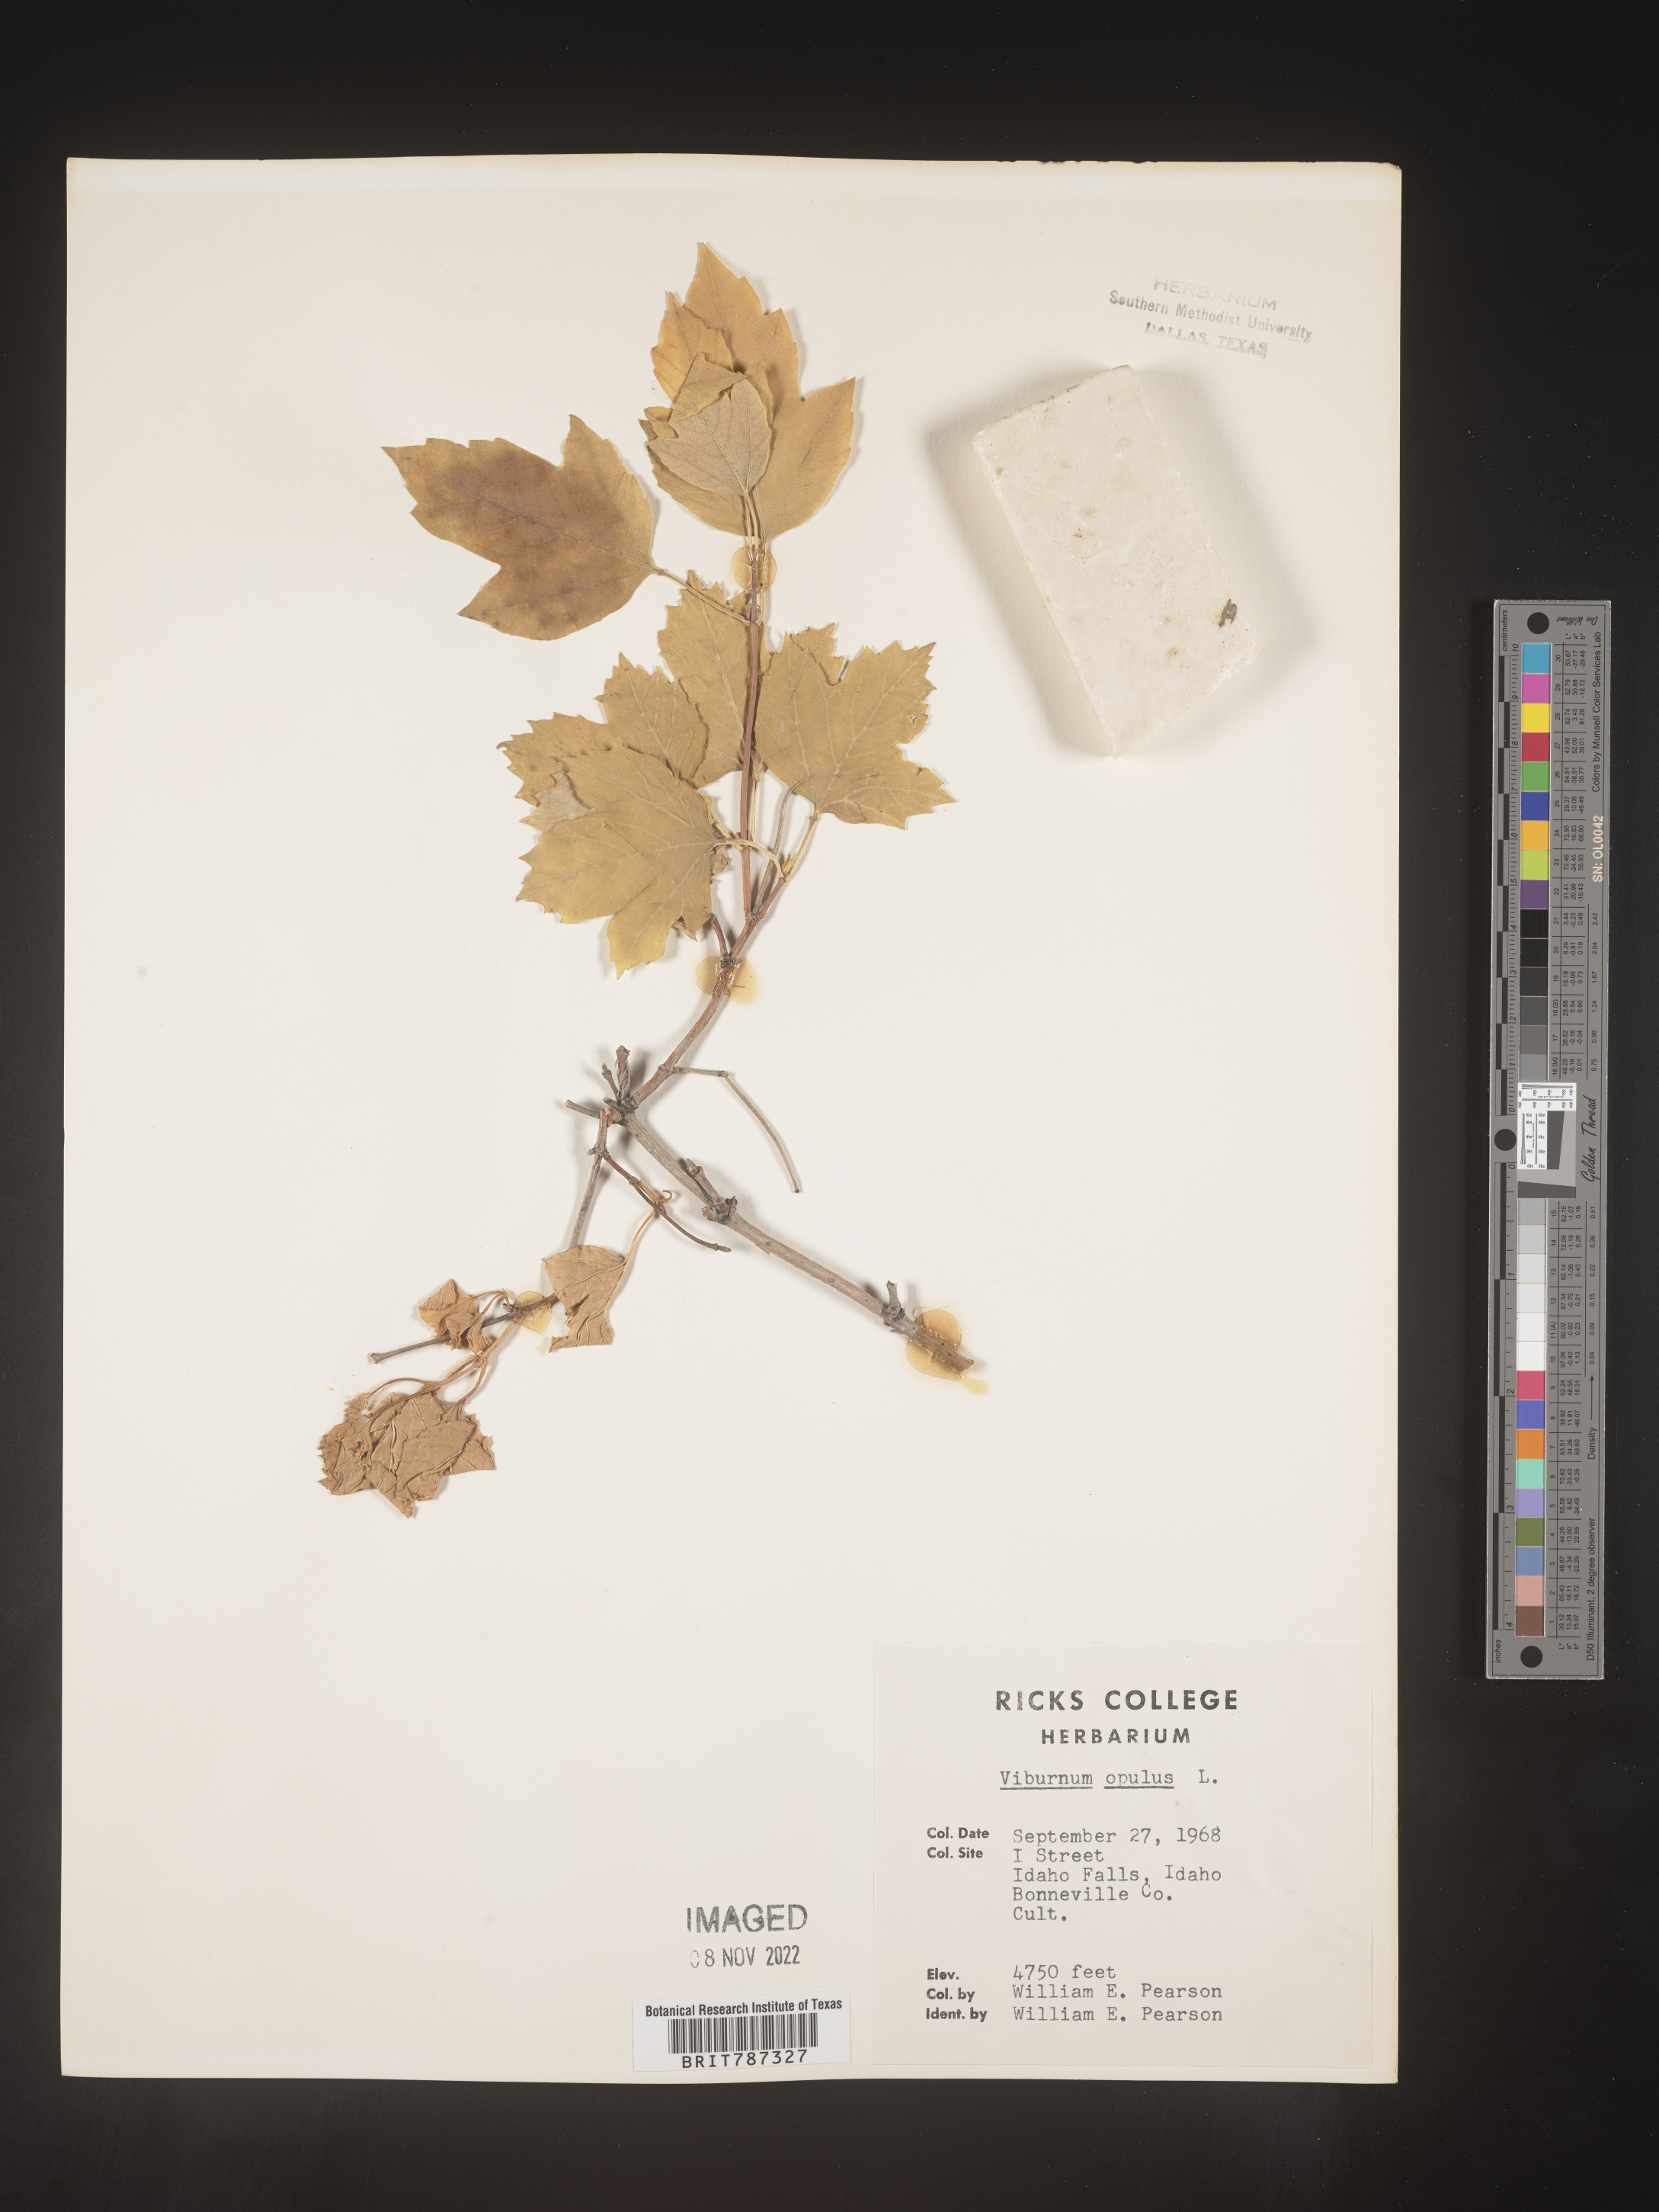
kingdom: Plantae
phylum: Tracheophyta
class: Magnoliopsida
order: Dipsacales
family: Viburnaceae
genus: Viburnum
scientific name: Viburnum
